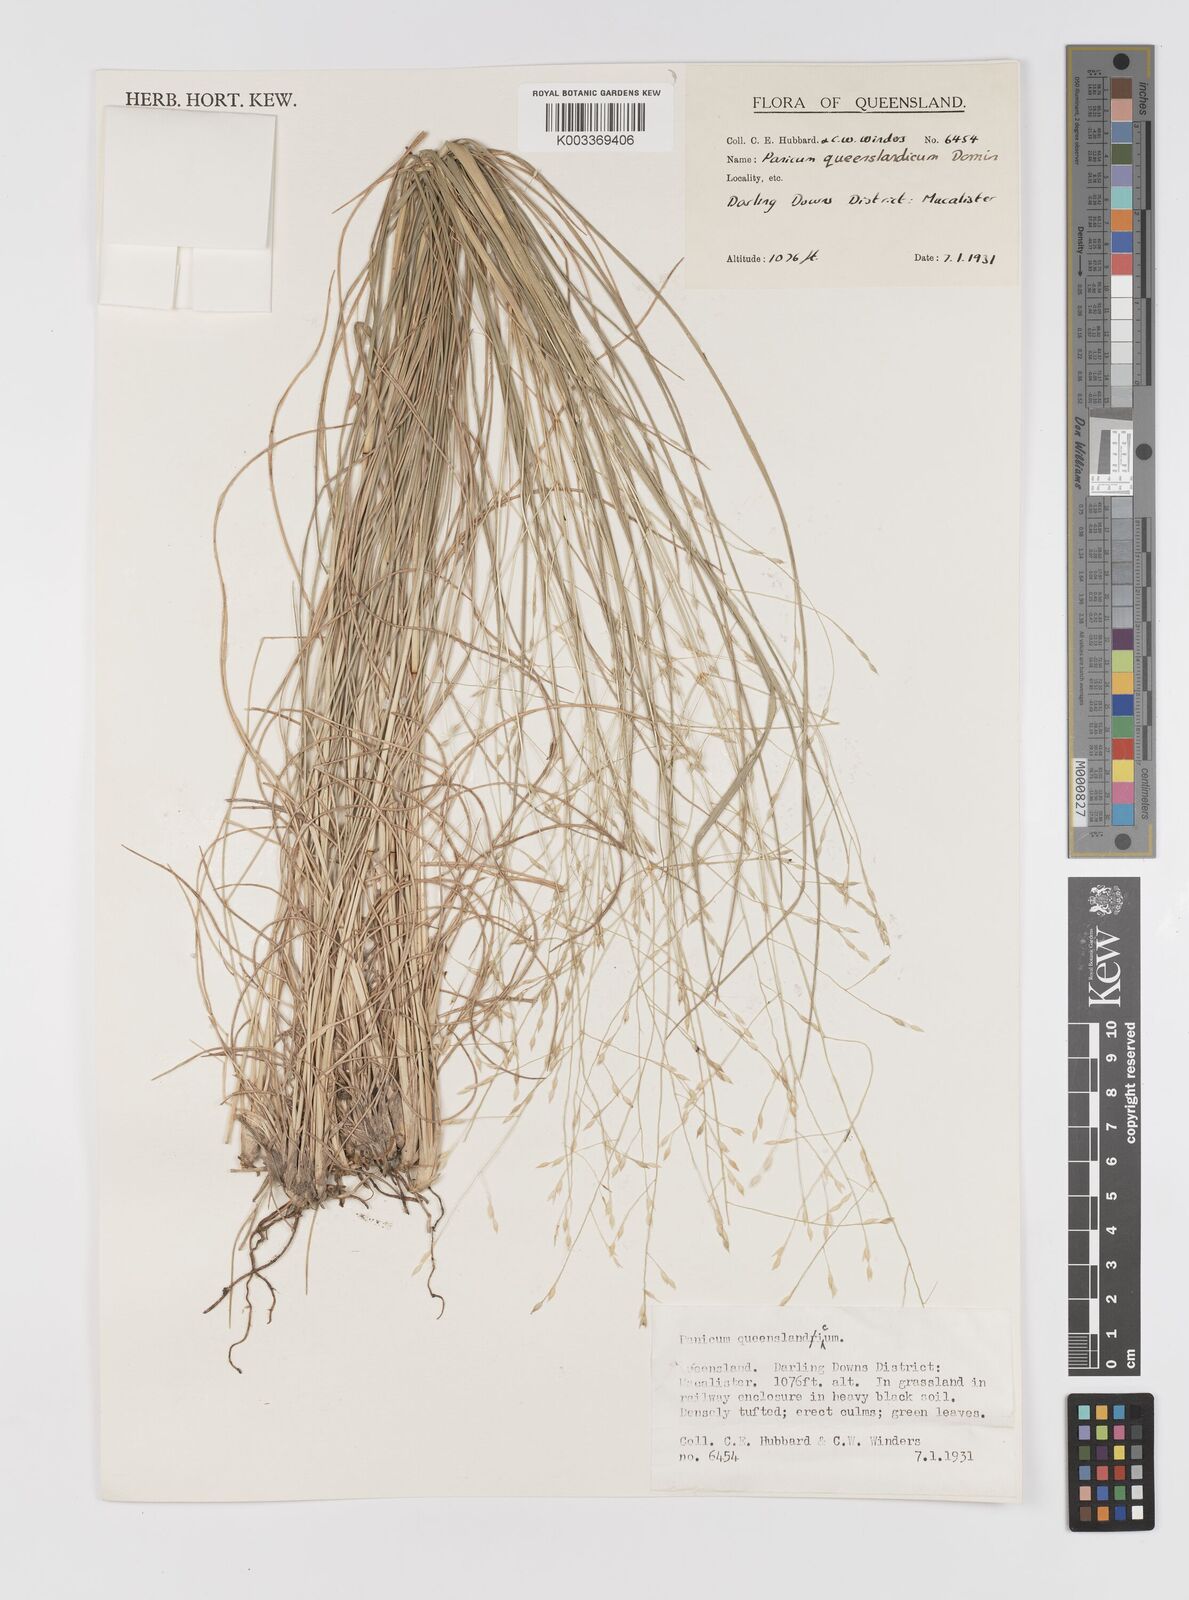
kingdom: Plantae
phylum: Tracheophyta
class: Liliopsida
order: Poales
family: Poaceae
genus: Panicum
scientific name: Panicum queenslandicum
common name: Yabila grass
